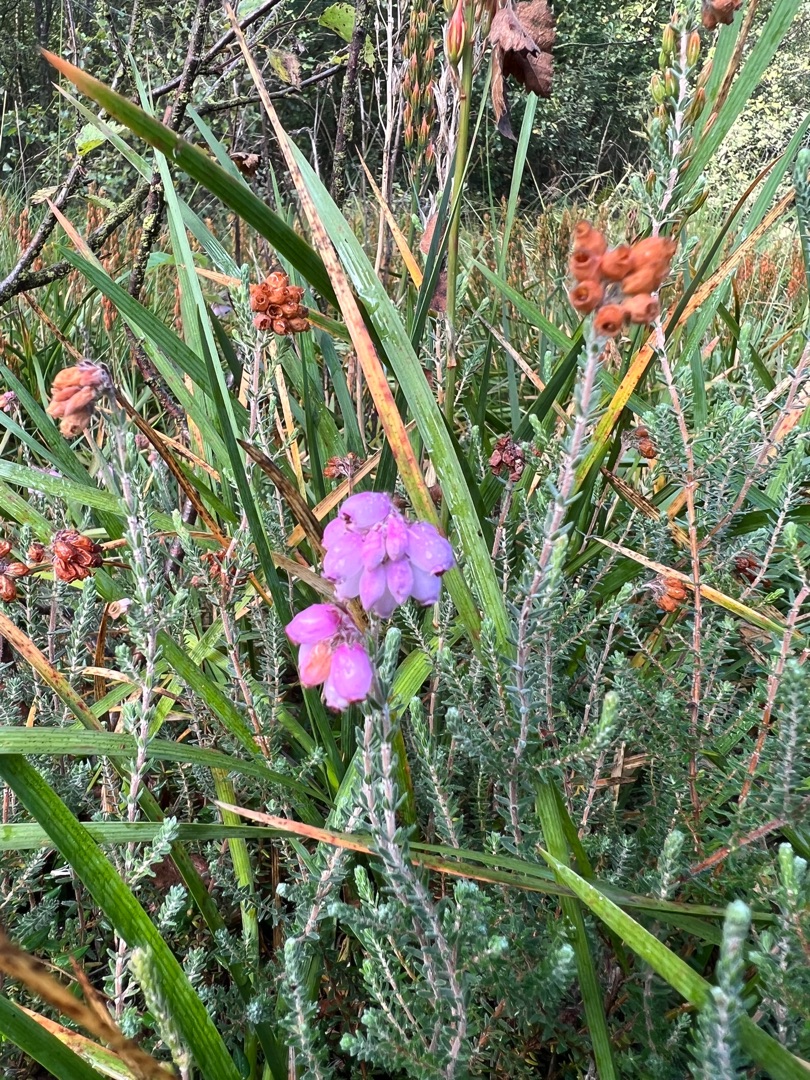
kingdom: Plantae
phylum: Tracheophyta
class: Magnoliopsida
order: Ericales
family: Ericaceae
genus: Erica
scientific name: Erica tetralix
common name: Klokkelyng
